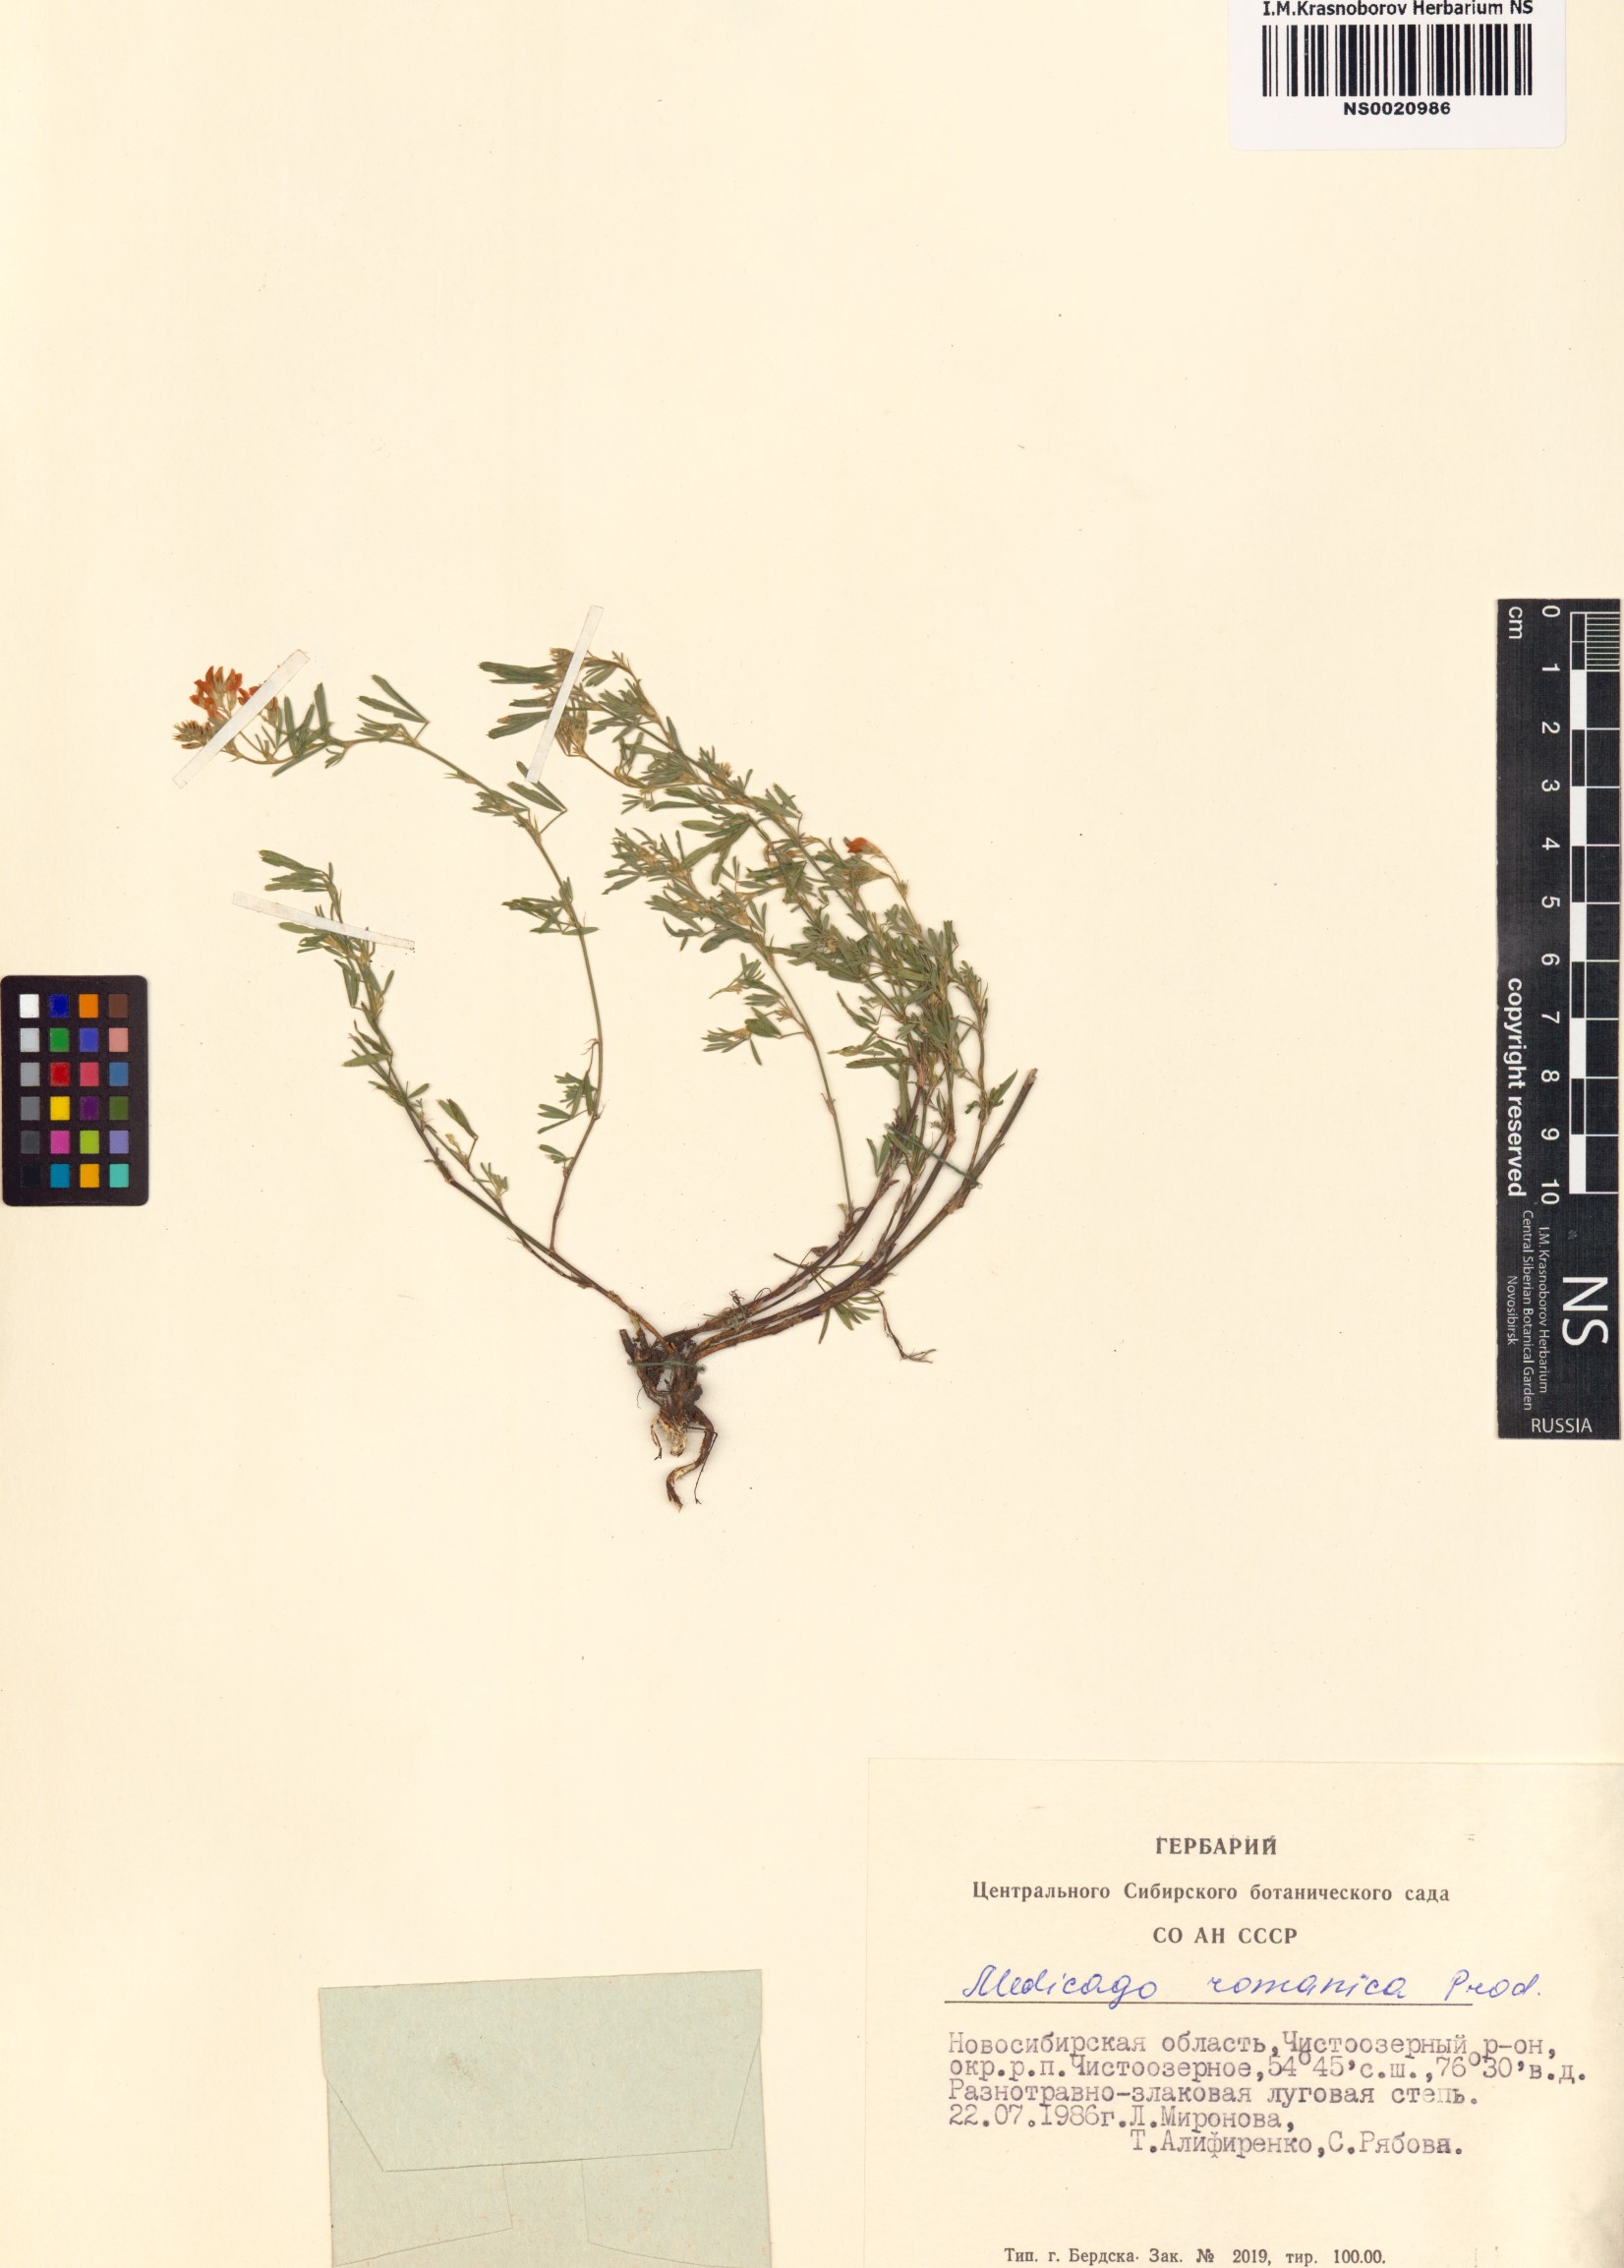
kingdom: Plantae
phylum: Tracheophyta
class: Magnoliopsida
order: Fabales
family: Fabaceae
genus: Medicago
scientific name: Medicago falcata
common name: Sickle medick
